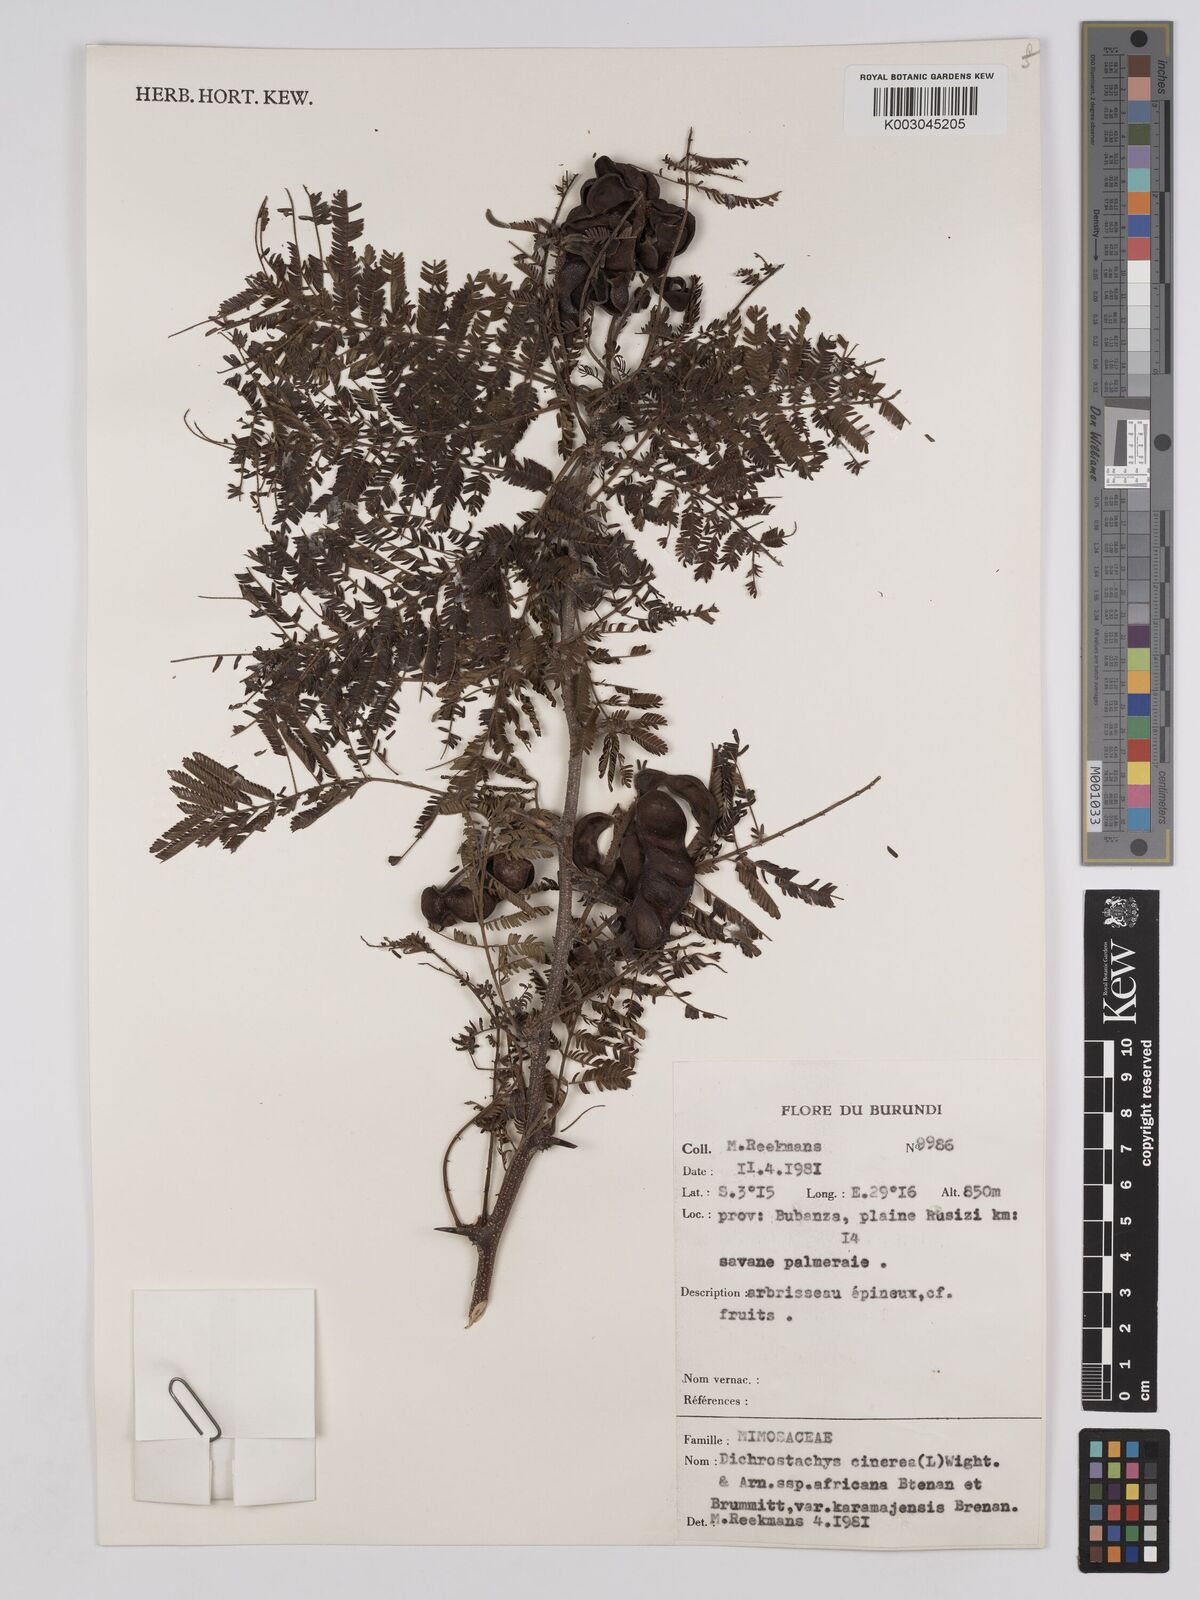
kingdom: Plantae
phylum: Tracheophyta
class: Magnoliopsida
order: Fabales
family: Fabaceae
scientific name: Fabaceae
